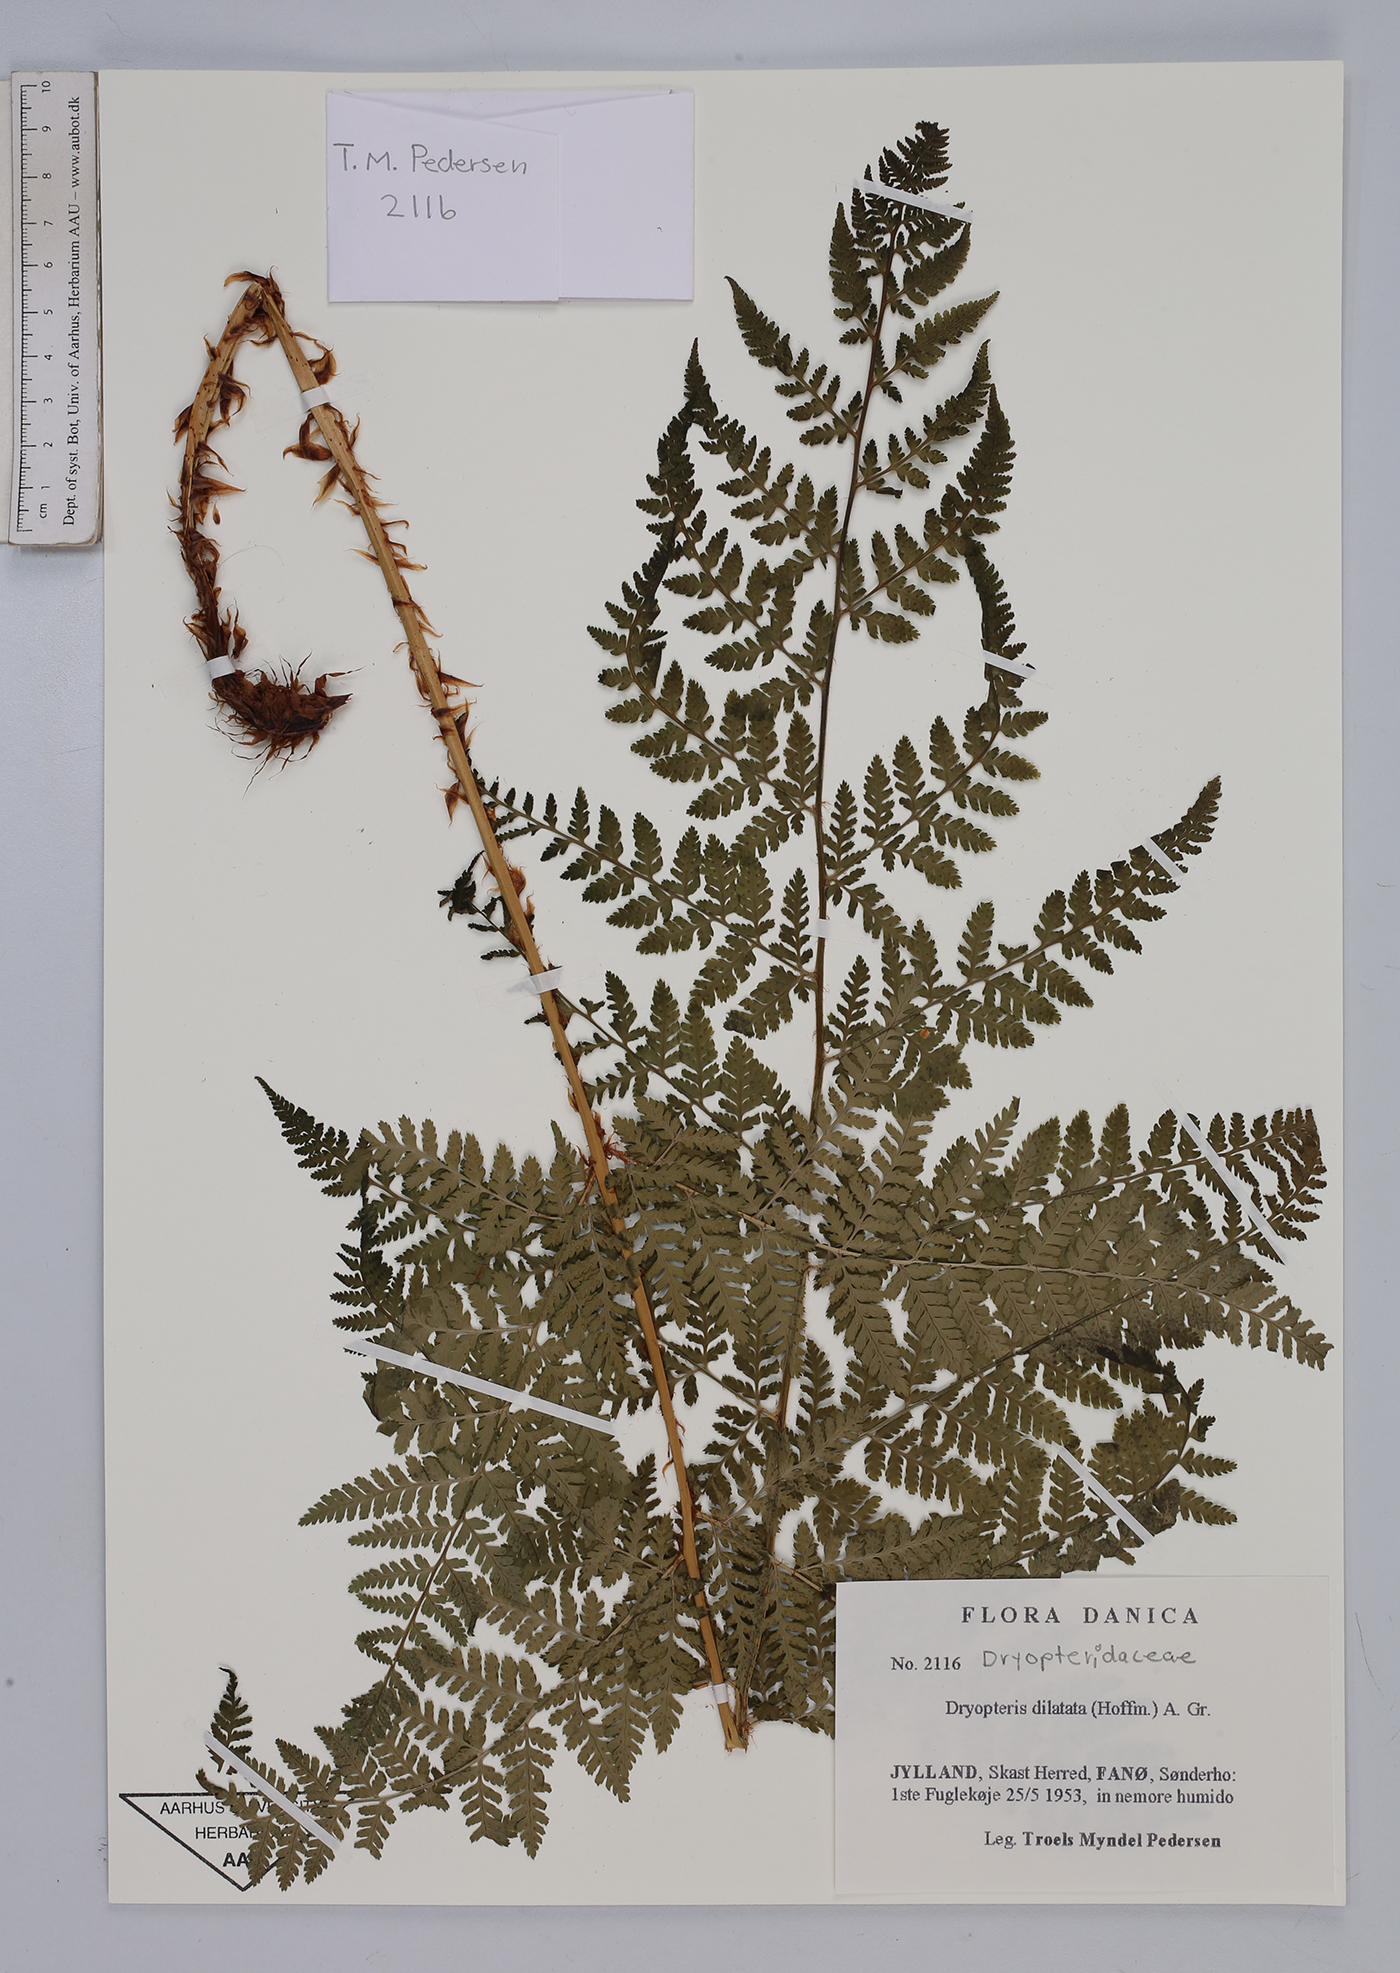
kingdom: Plantae
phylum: Tracheophyta
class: Polypodiopsida
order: Polypodiales
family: Dryopteridaceae
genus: Dryopteris
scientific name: Dryopteris dilatata
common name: Broad buckler-fern
